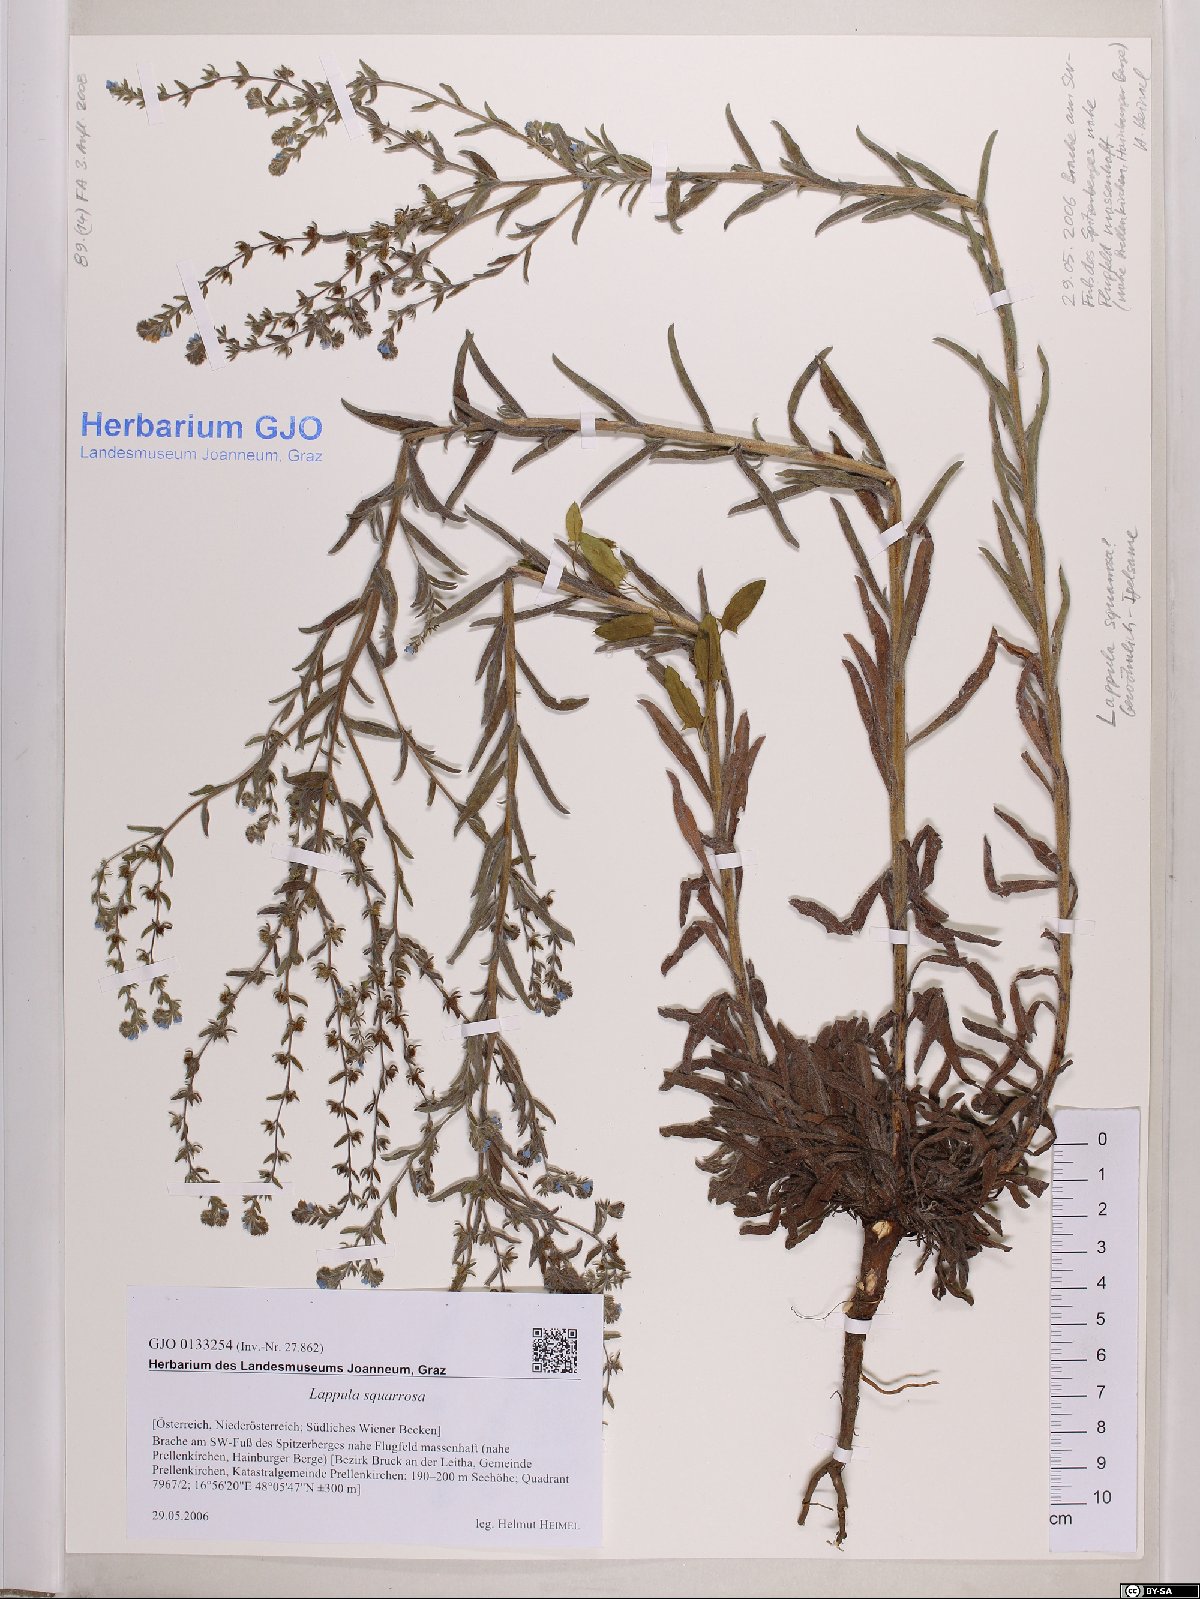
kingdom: Plantae
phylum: Tracheophyta
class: Magnoliopsida
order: Boraginales
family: Boraginaceae
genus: Lappula
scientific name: Lappula squarrosa
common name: European stickseed
